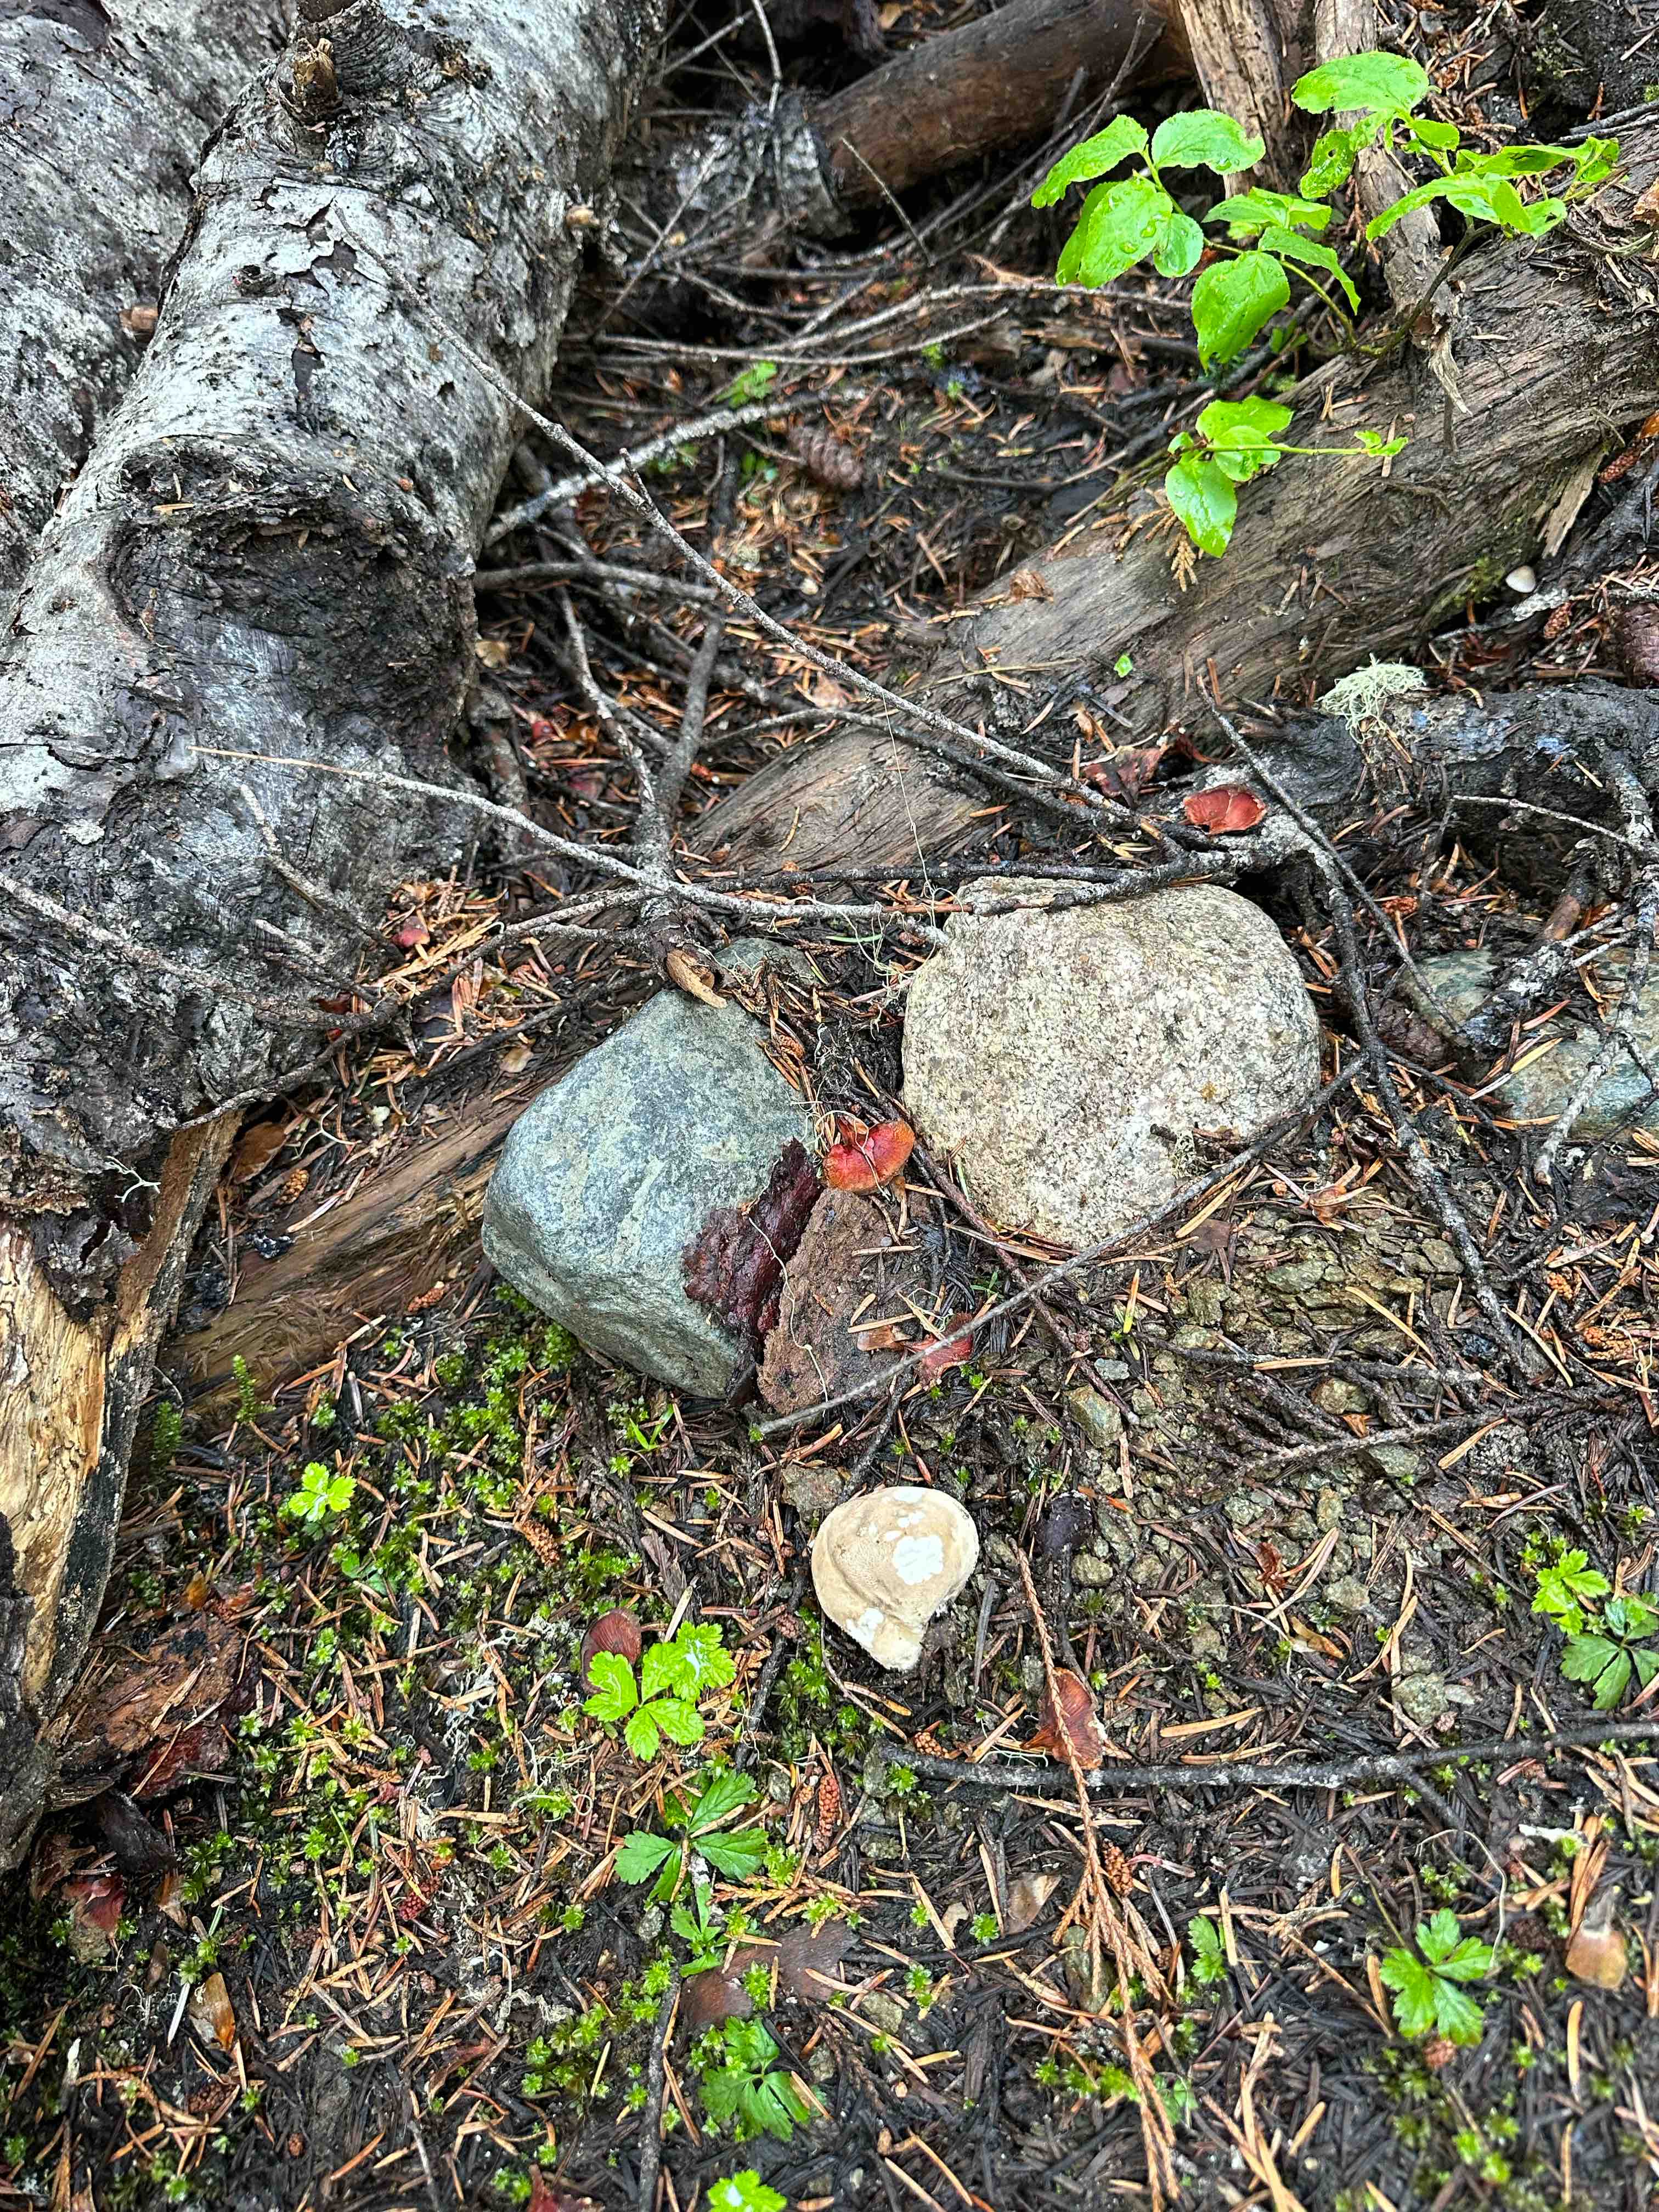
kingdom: Fungi
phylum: Basidiomycota
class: Agaricomycetes
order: Agaricales
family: Agaricaceae
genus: Lycoperdon
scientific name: Lycoperdon
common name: støvbold
